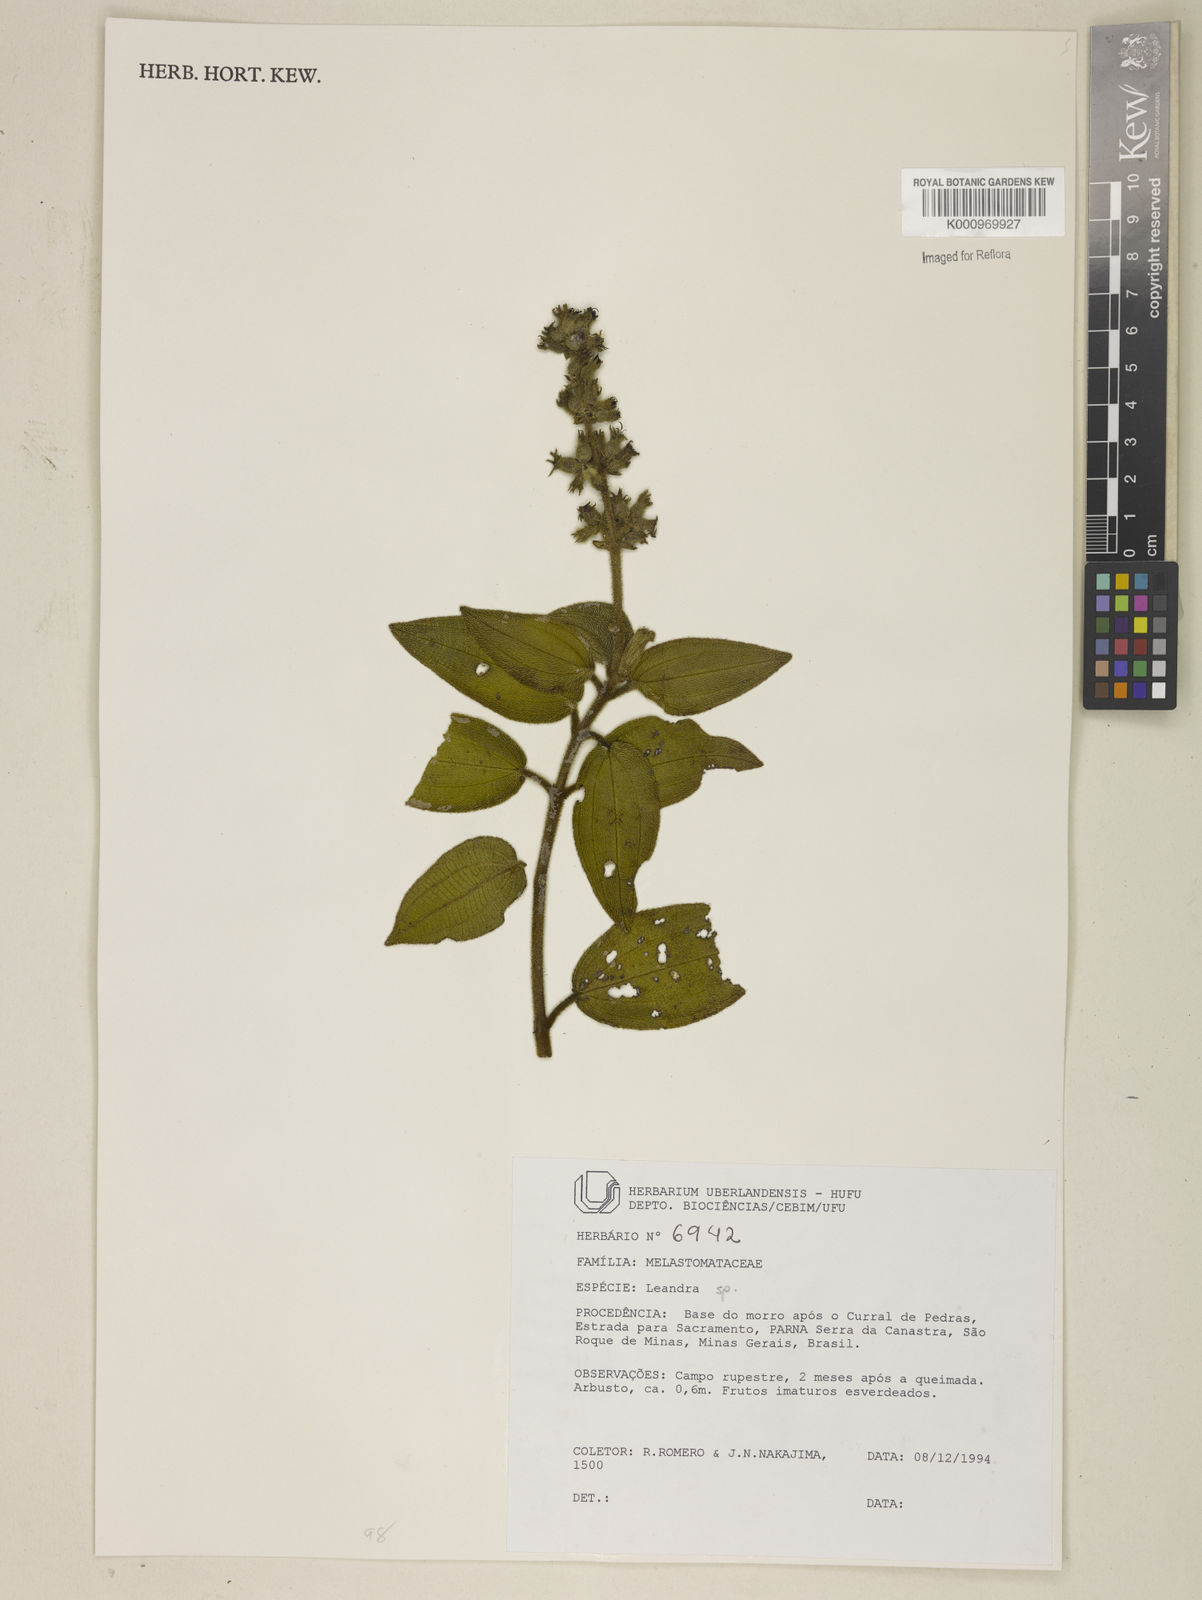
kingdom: Plantae
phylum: Tracheophyta
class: Magnoliopsida
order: Myrtales
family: Melastomataceae
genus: Miconia
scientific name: Miconia
